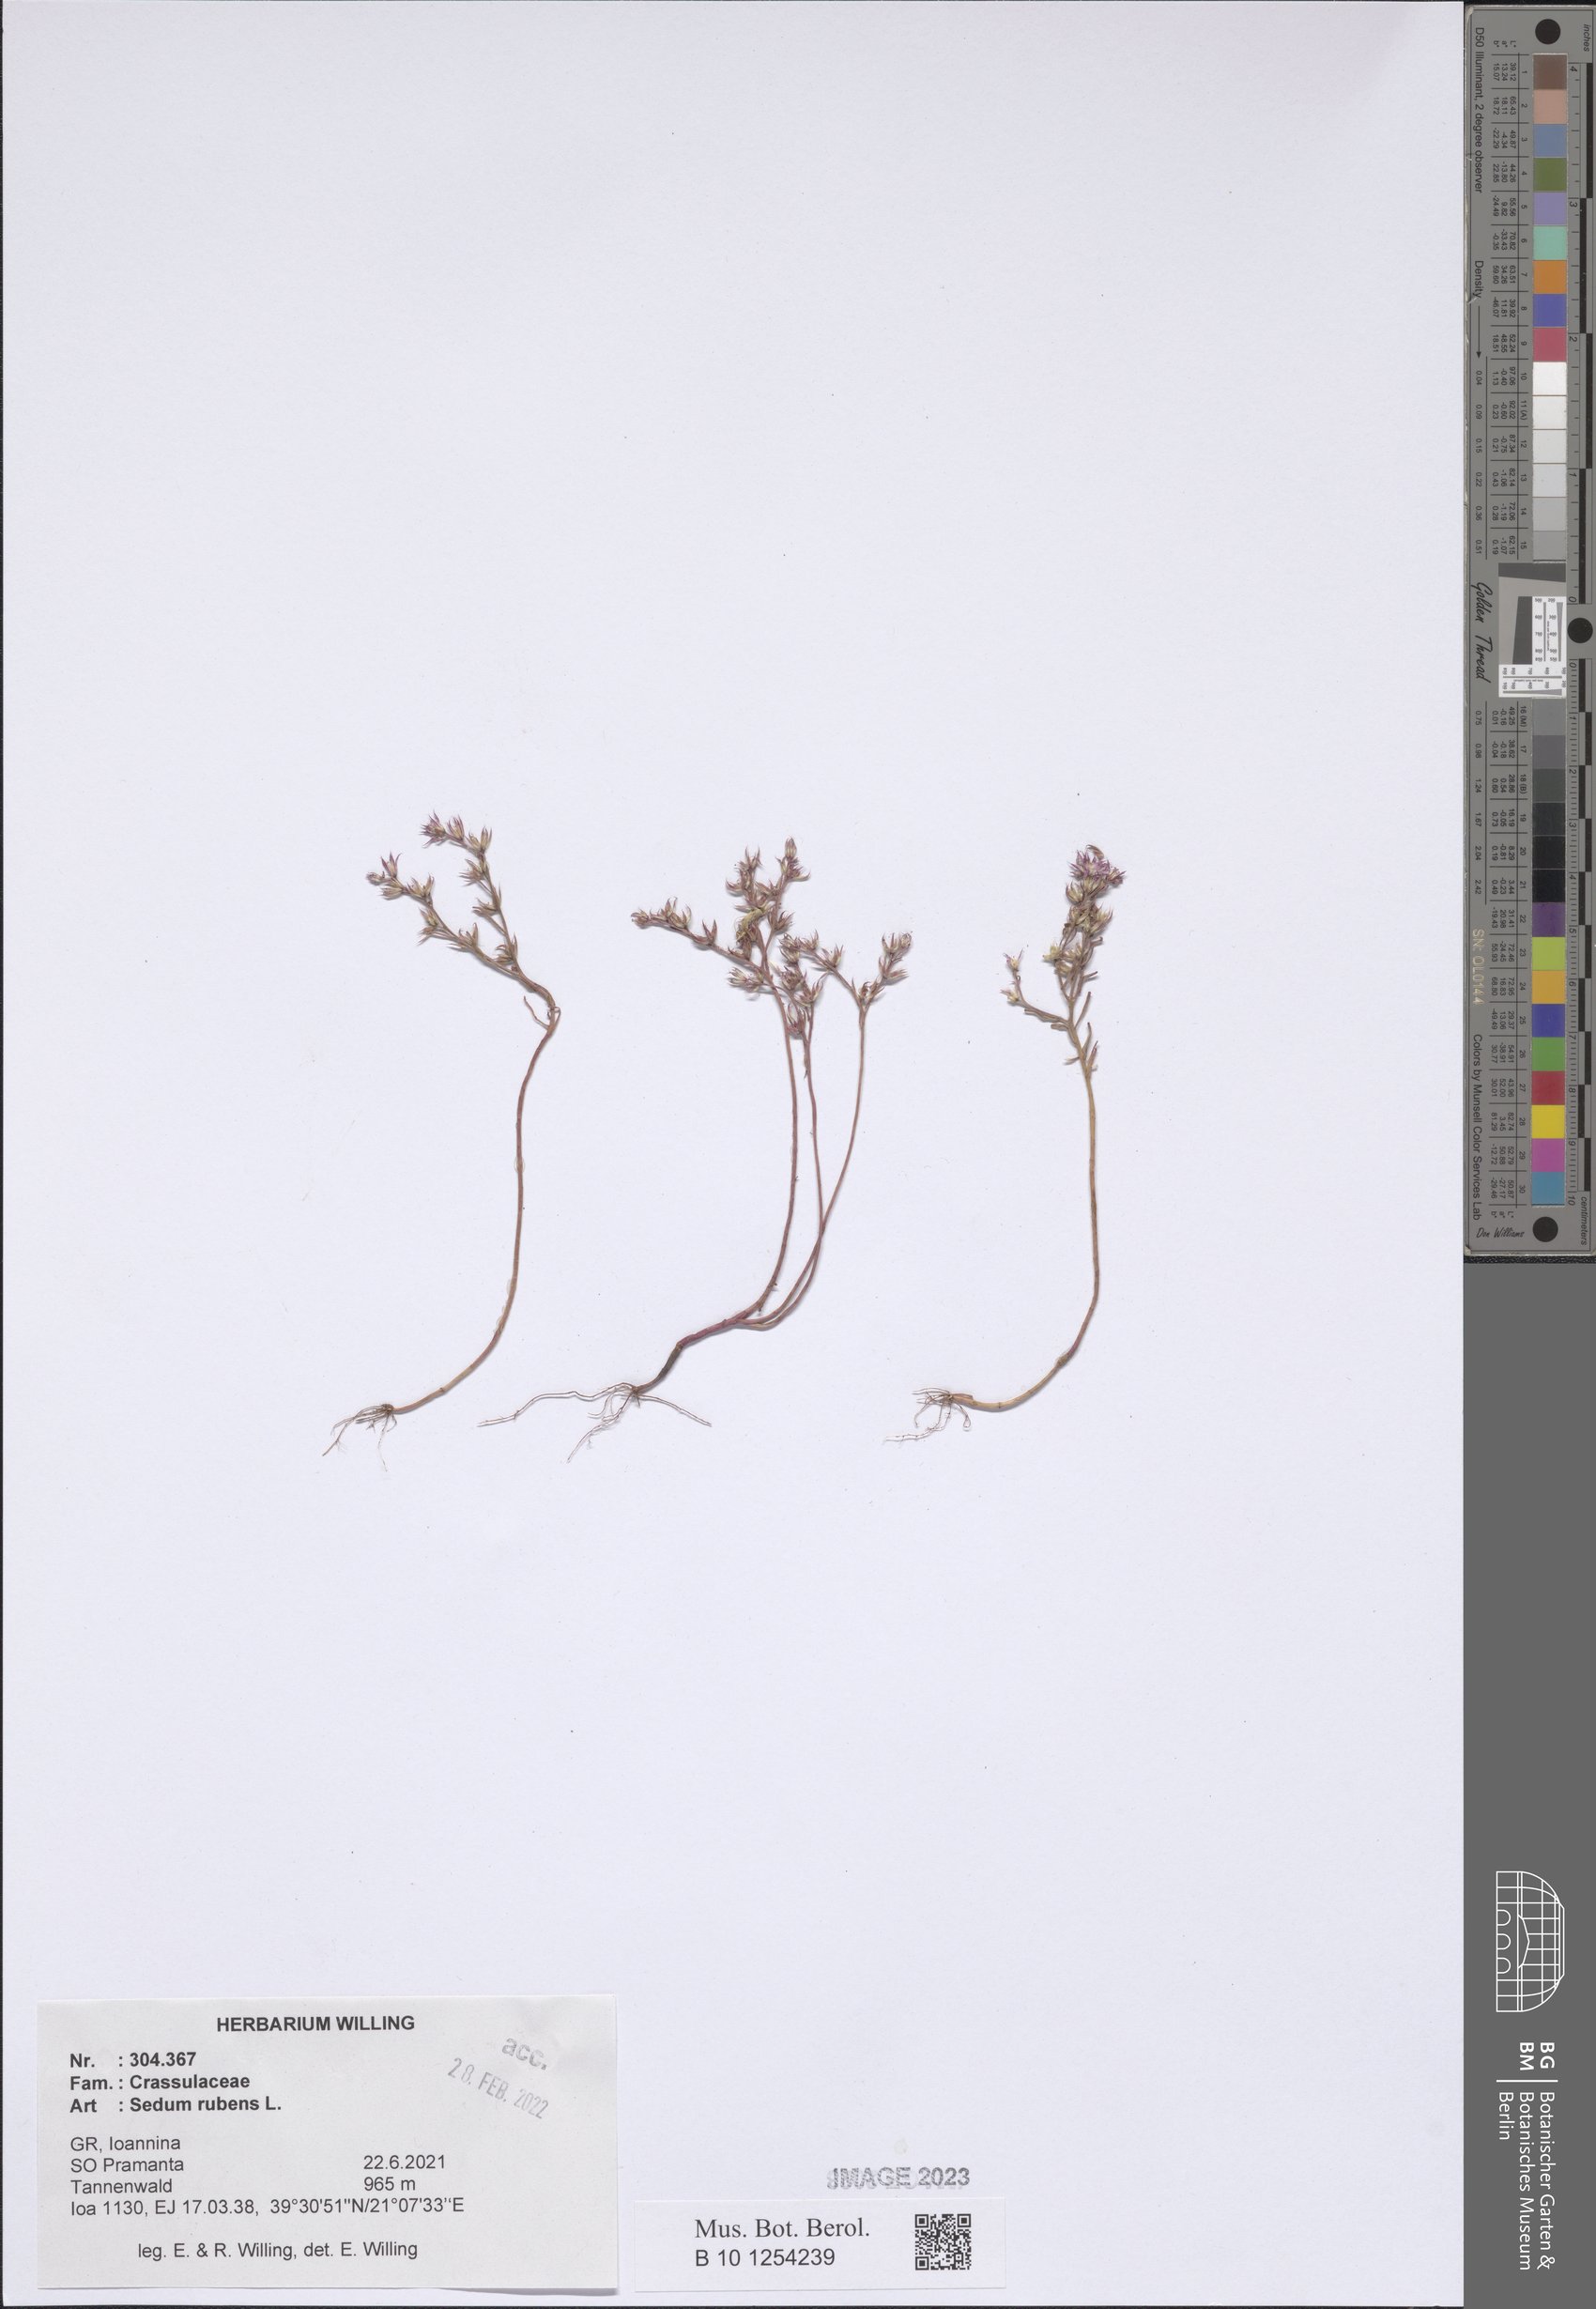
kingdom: Plantae
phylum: Tracheophyta
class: Magnoliopsida
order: Saxifragales
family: Crassulaceae
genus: Sedum
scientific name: Sedum rubens
